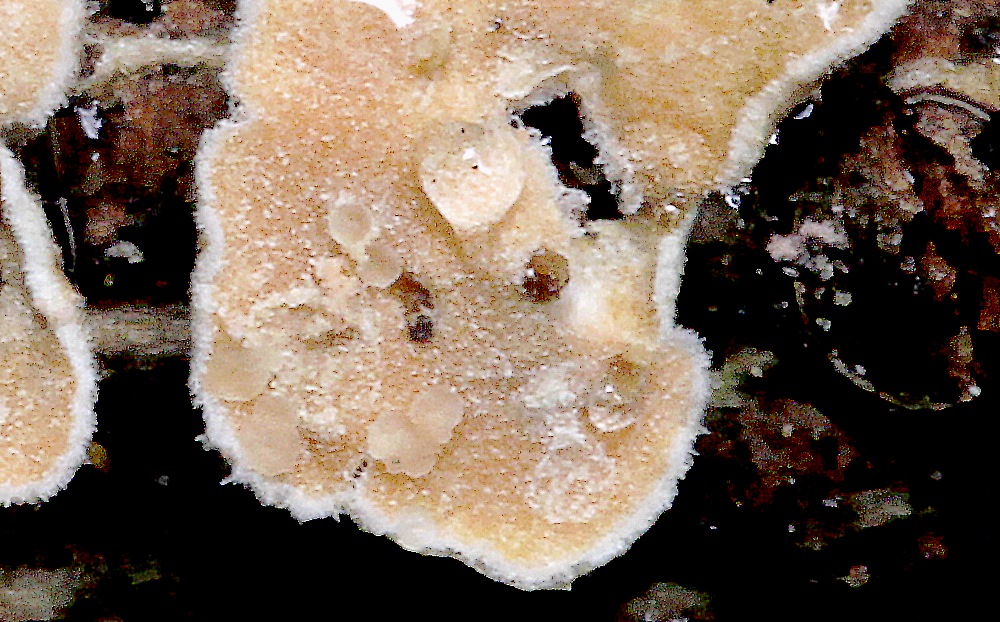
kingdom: Fungi
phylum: Basidiomycota
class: Tremellomycetes
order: Tremellales
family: Tremellaceae
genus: Phaeotremella
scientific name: Phaeotremella simplex
